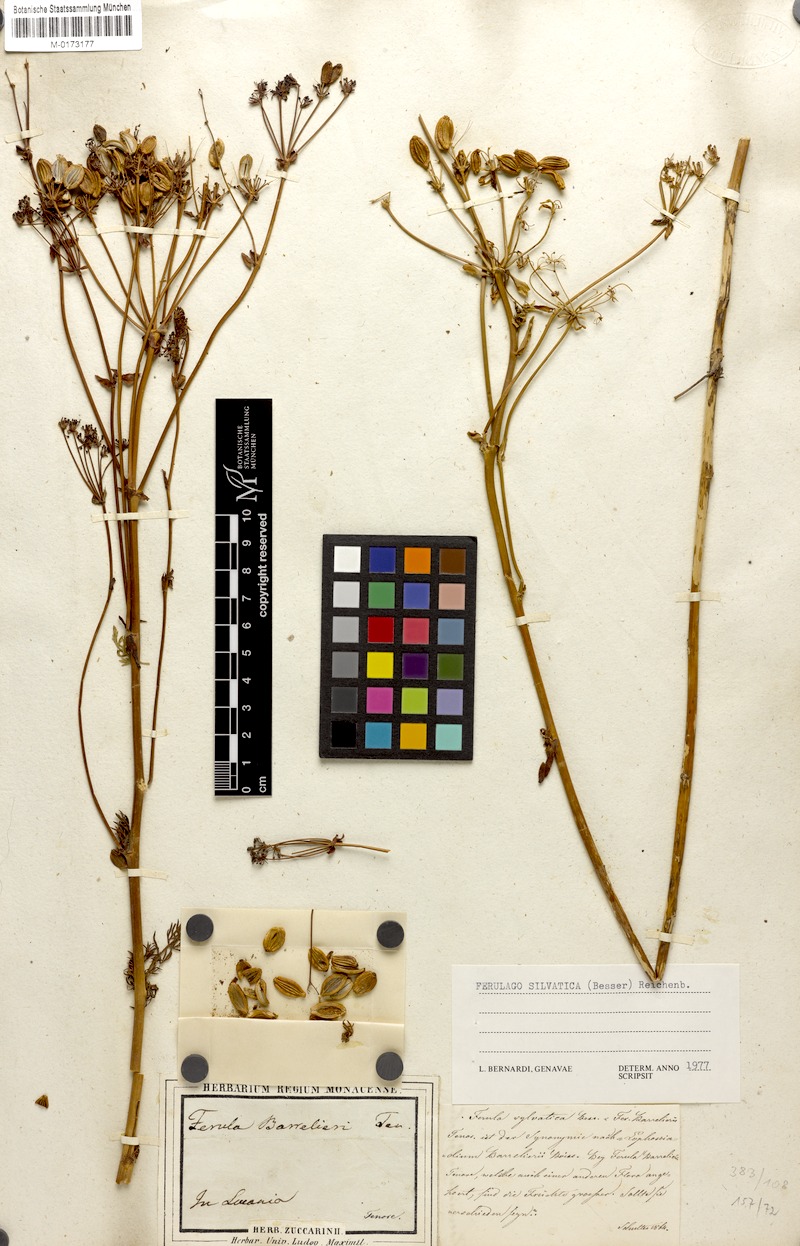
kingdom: Plantae
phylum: Tracheophyta
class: Magnoliopsida
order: Apiales
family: Apiaceae
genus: Ferulago
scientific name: Ferulago sylvatica
